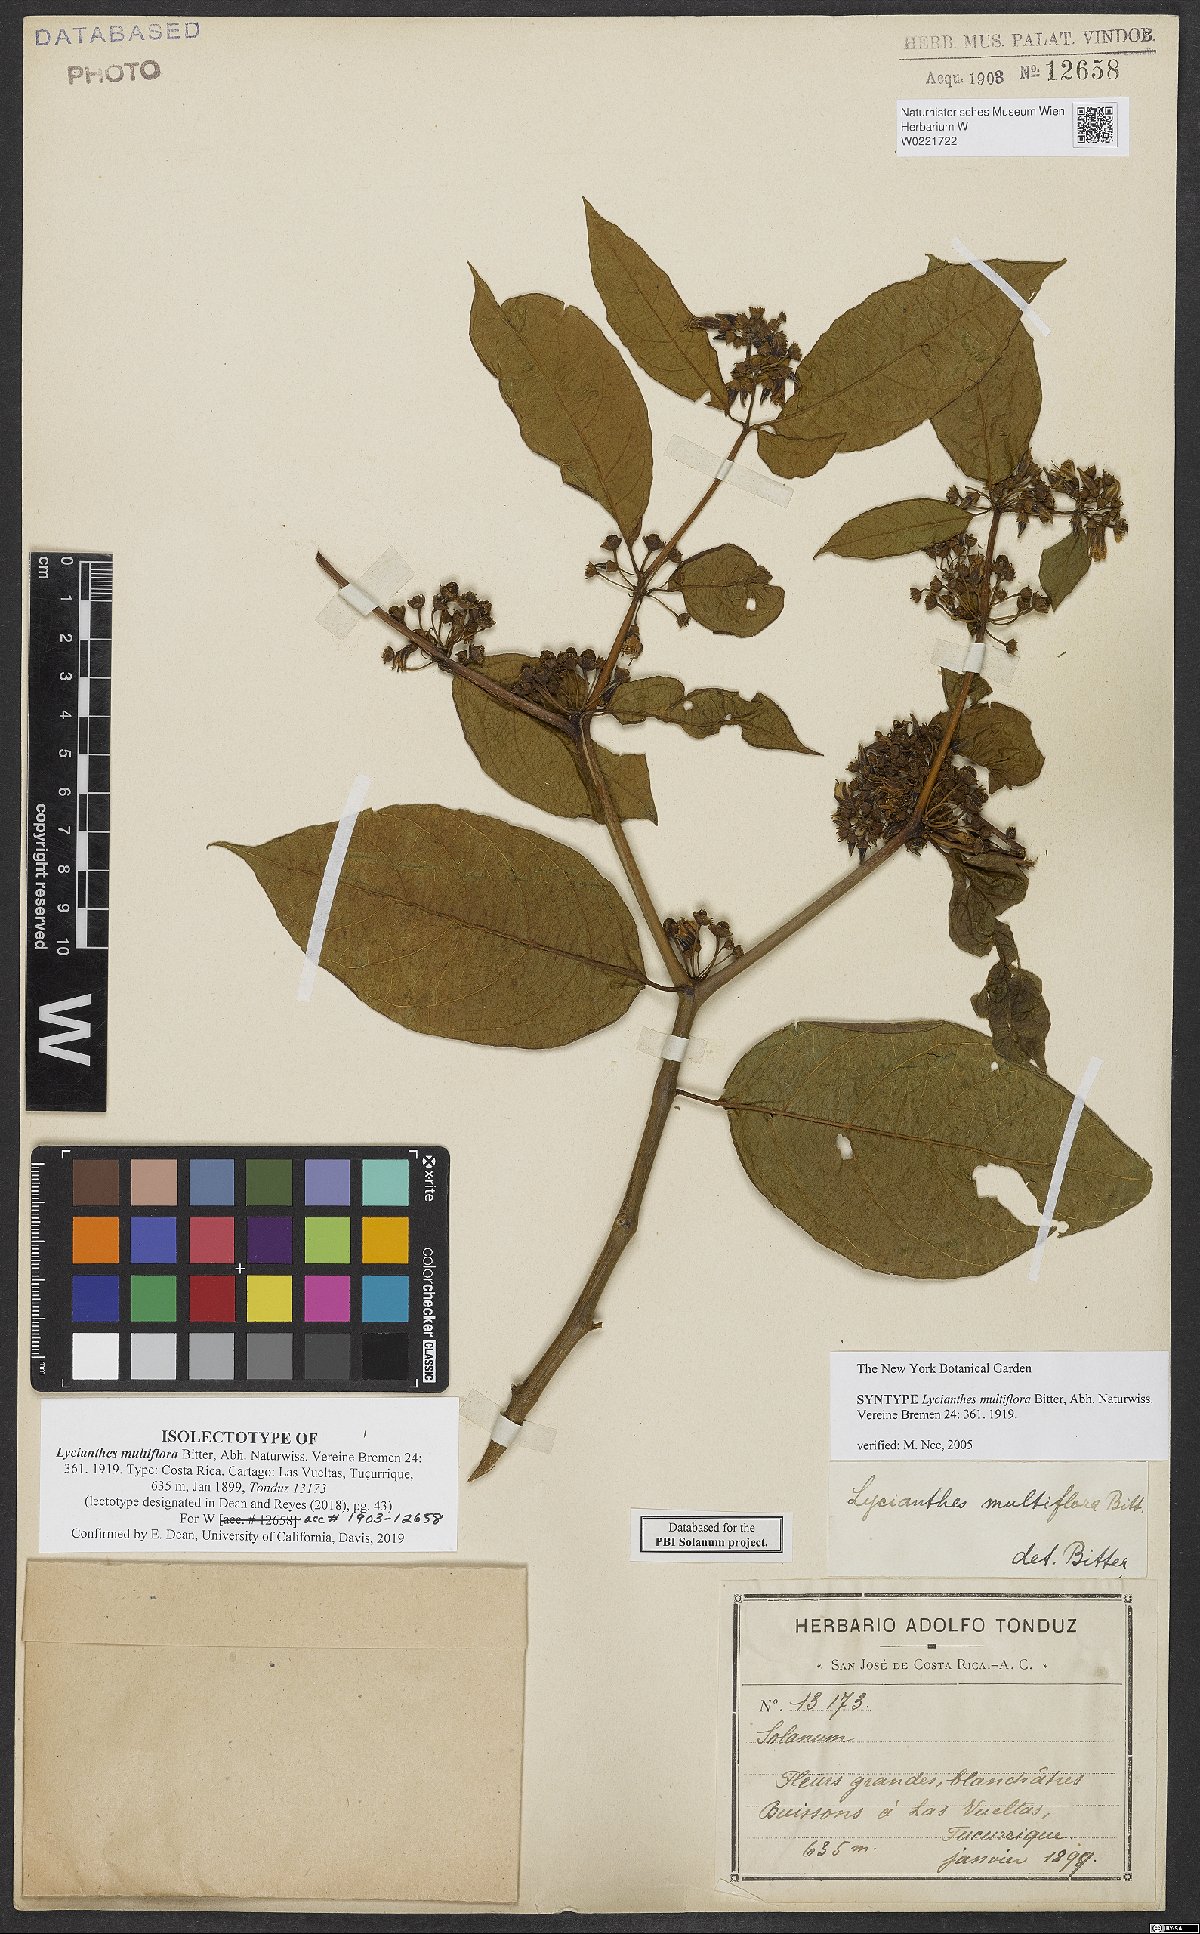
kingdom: Plantae
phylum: Tracheophyta
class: Magnoliopsida
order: Solanales
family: Solanaceae
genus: Lycianthes
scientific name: Lycianthes multiflora
